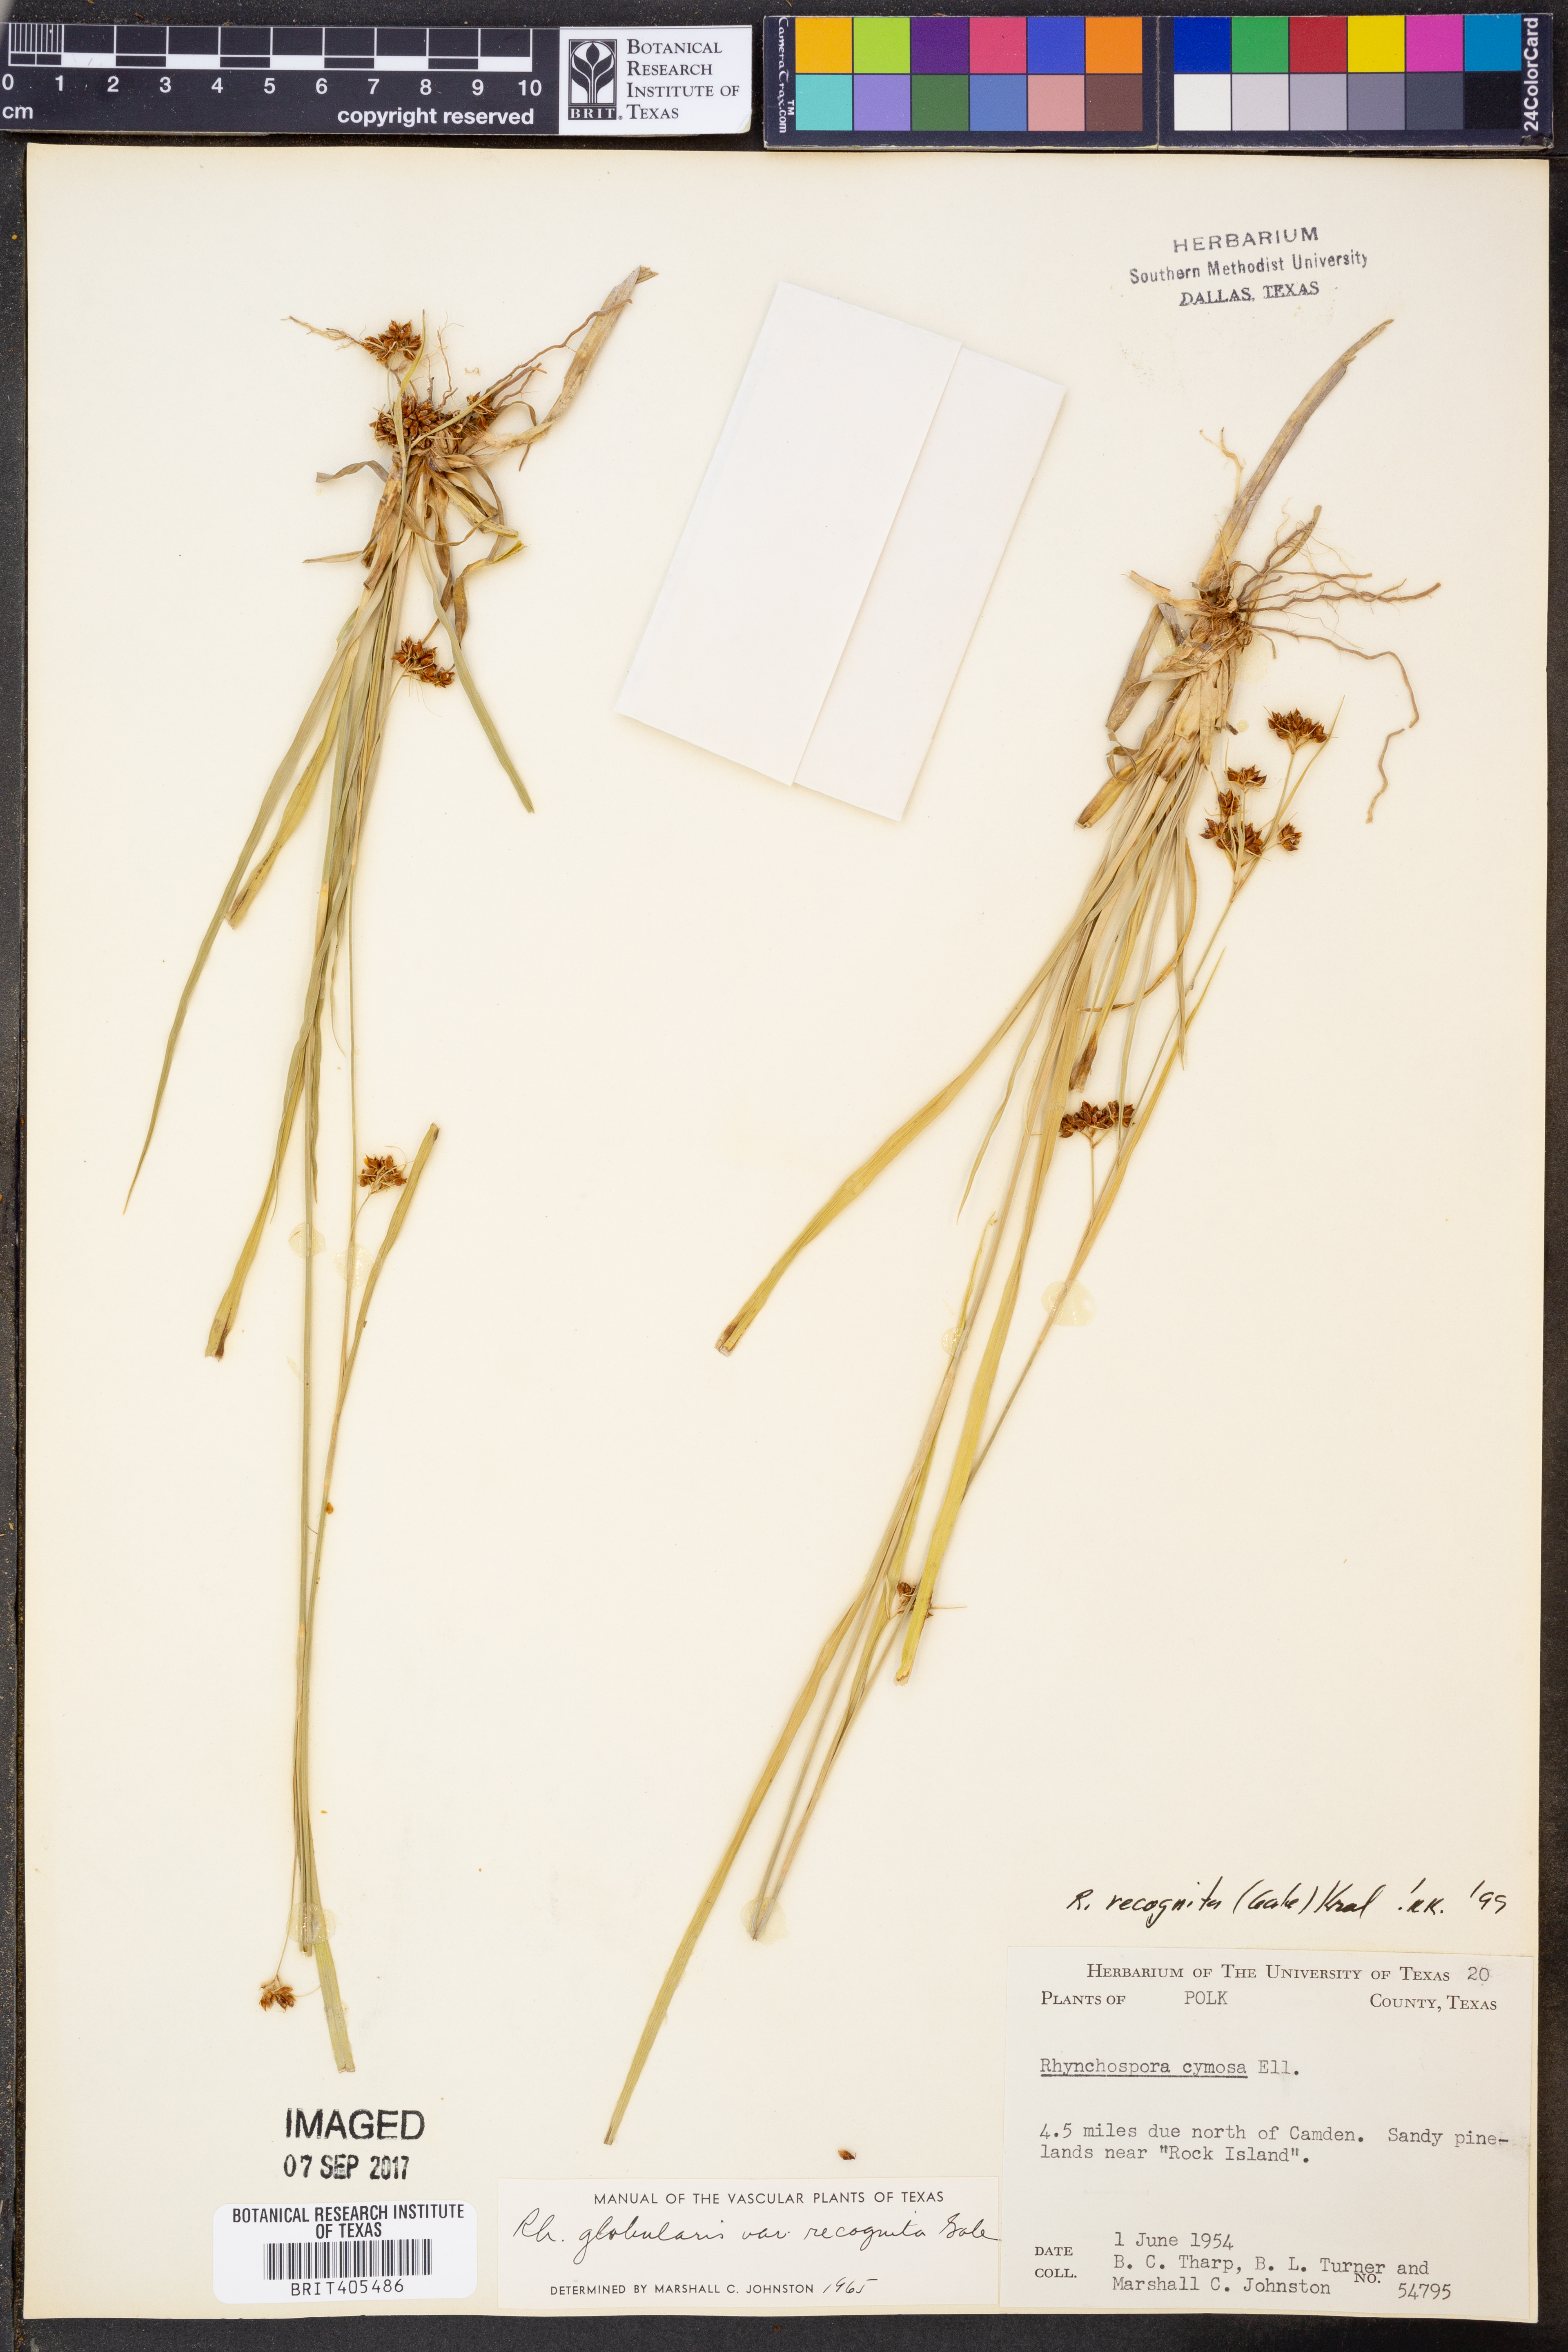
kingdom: Plantae
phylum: Tracheophyta
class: Liliopsida
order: Poales
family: Cyperaceae
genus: Rhynchospora
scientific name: Rhynchospora recognita
